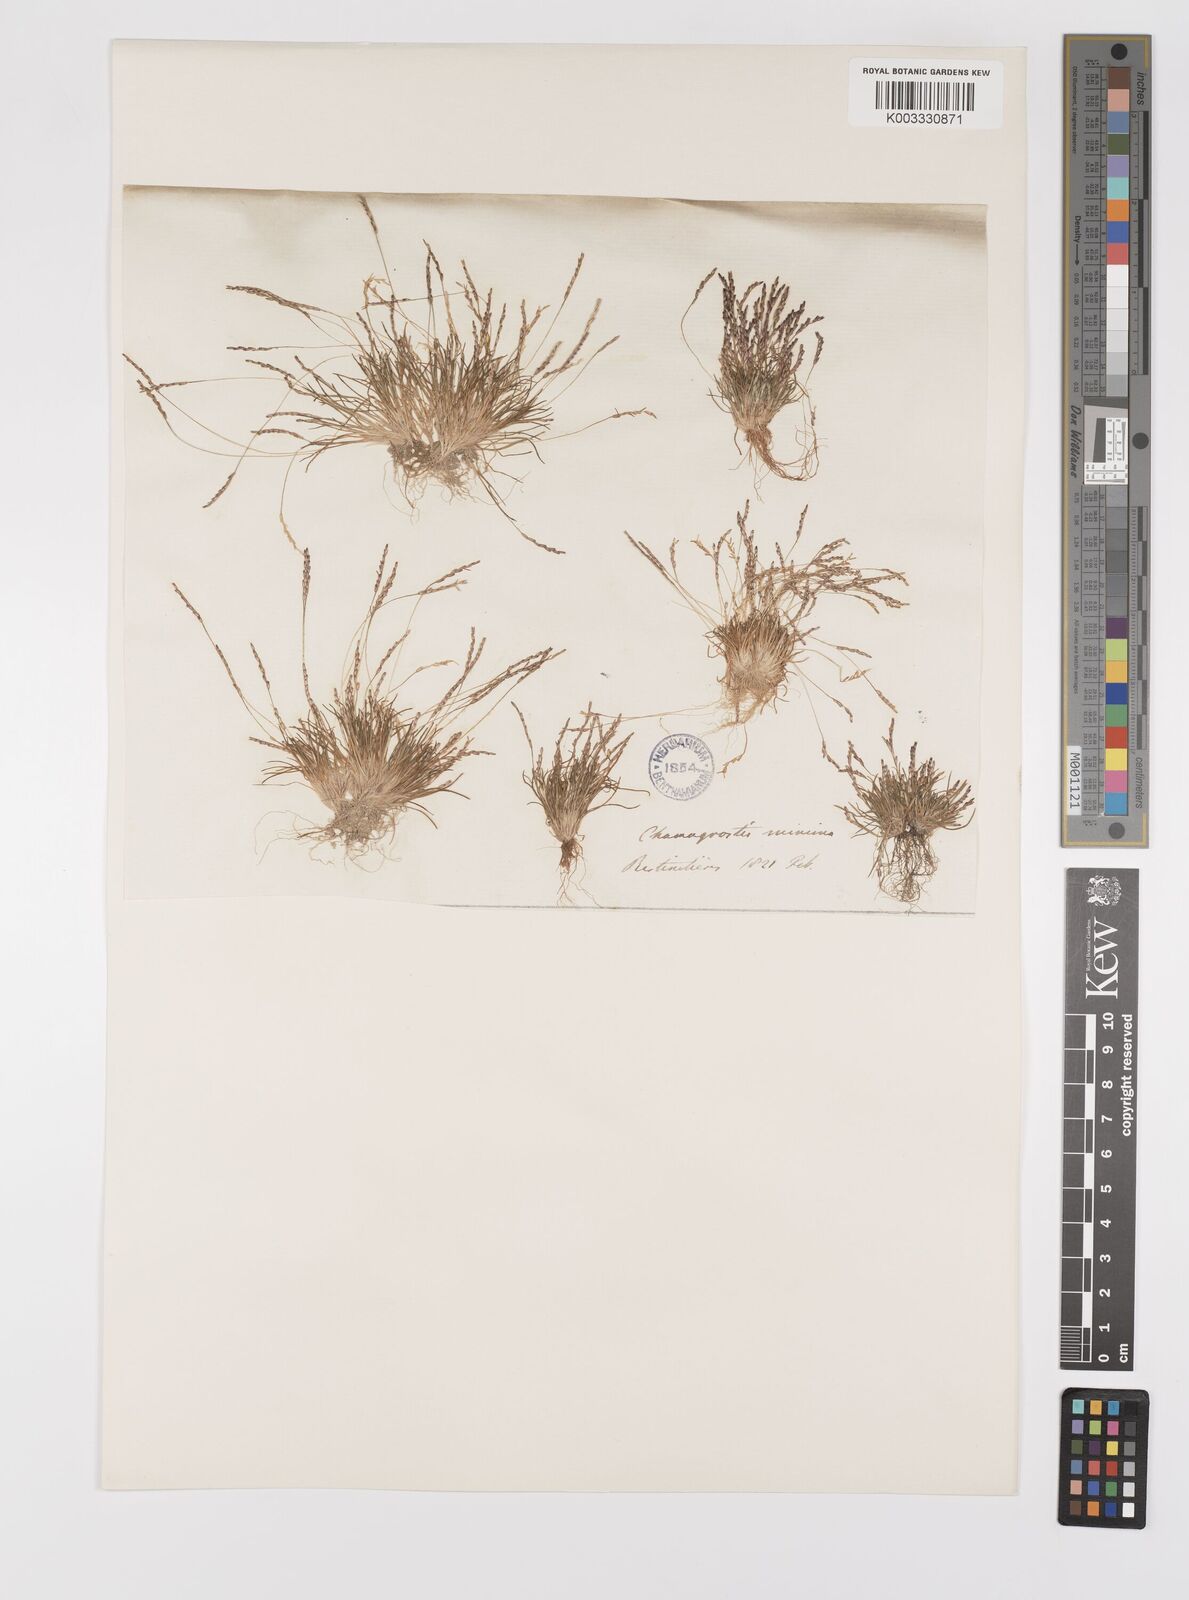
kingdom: Plantae
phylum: Tracheophyta
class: Liliopsida
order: Poales
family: Poaceae
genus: Mibora
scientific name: Mibora minima
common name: Early sand-grass
